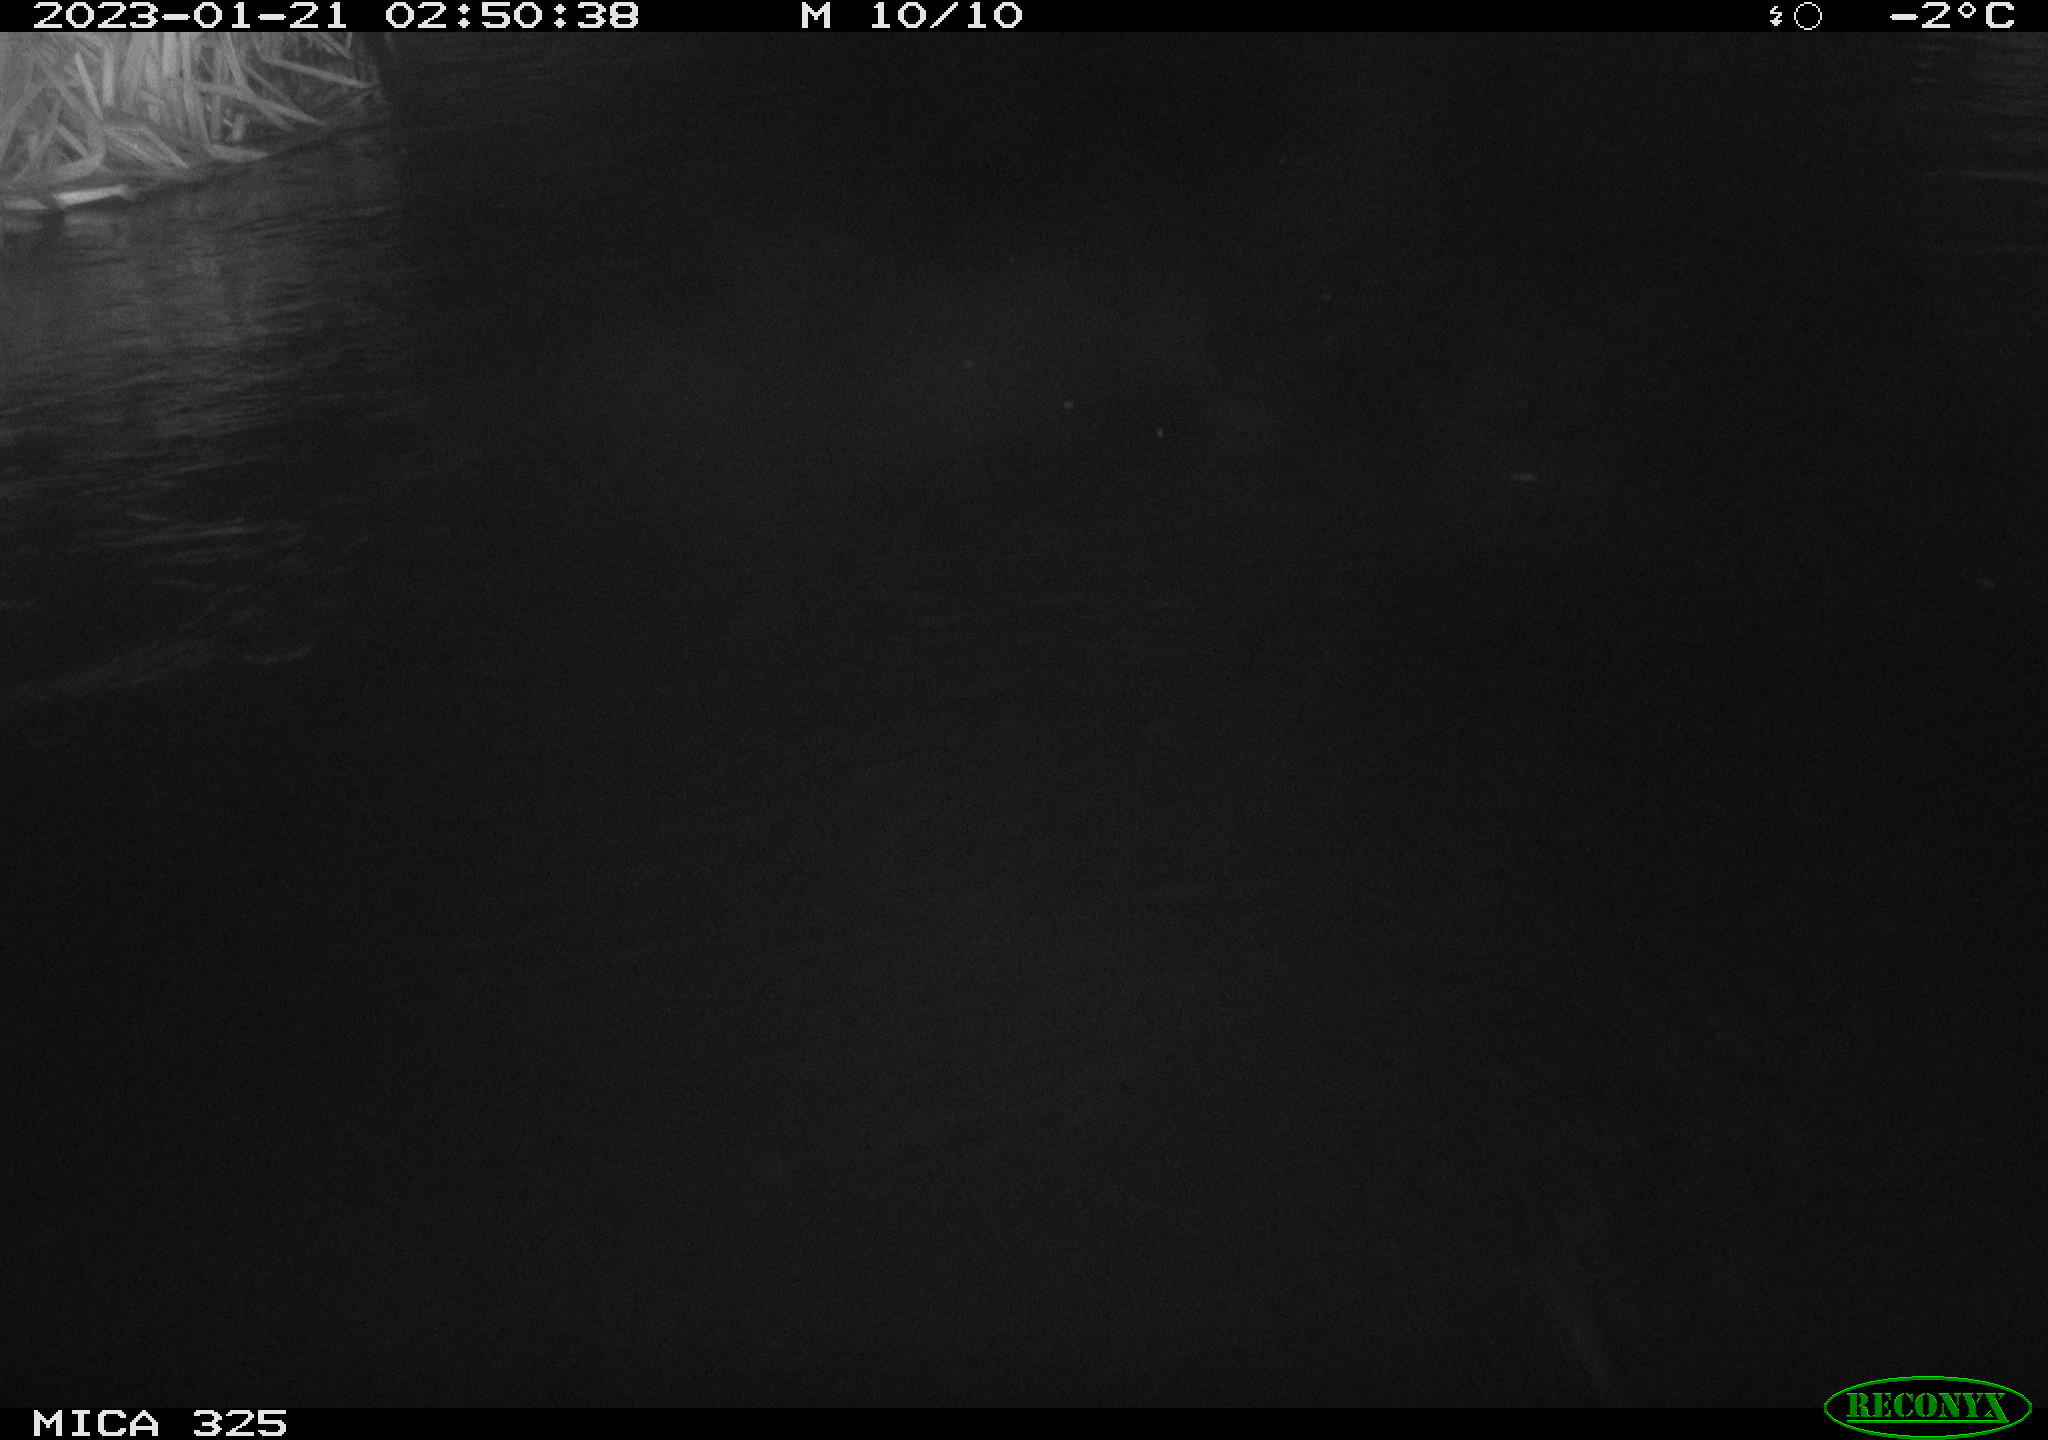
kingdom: Animalia
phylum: Chordata
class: Mammalia
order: Rodentia
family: Cricetidae
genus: Ondatra
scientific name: Ondatra zibethicus
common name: Muskrat
